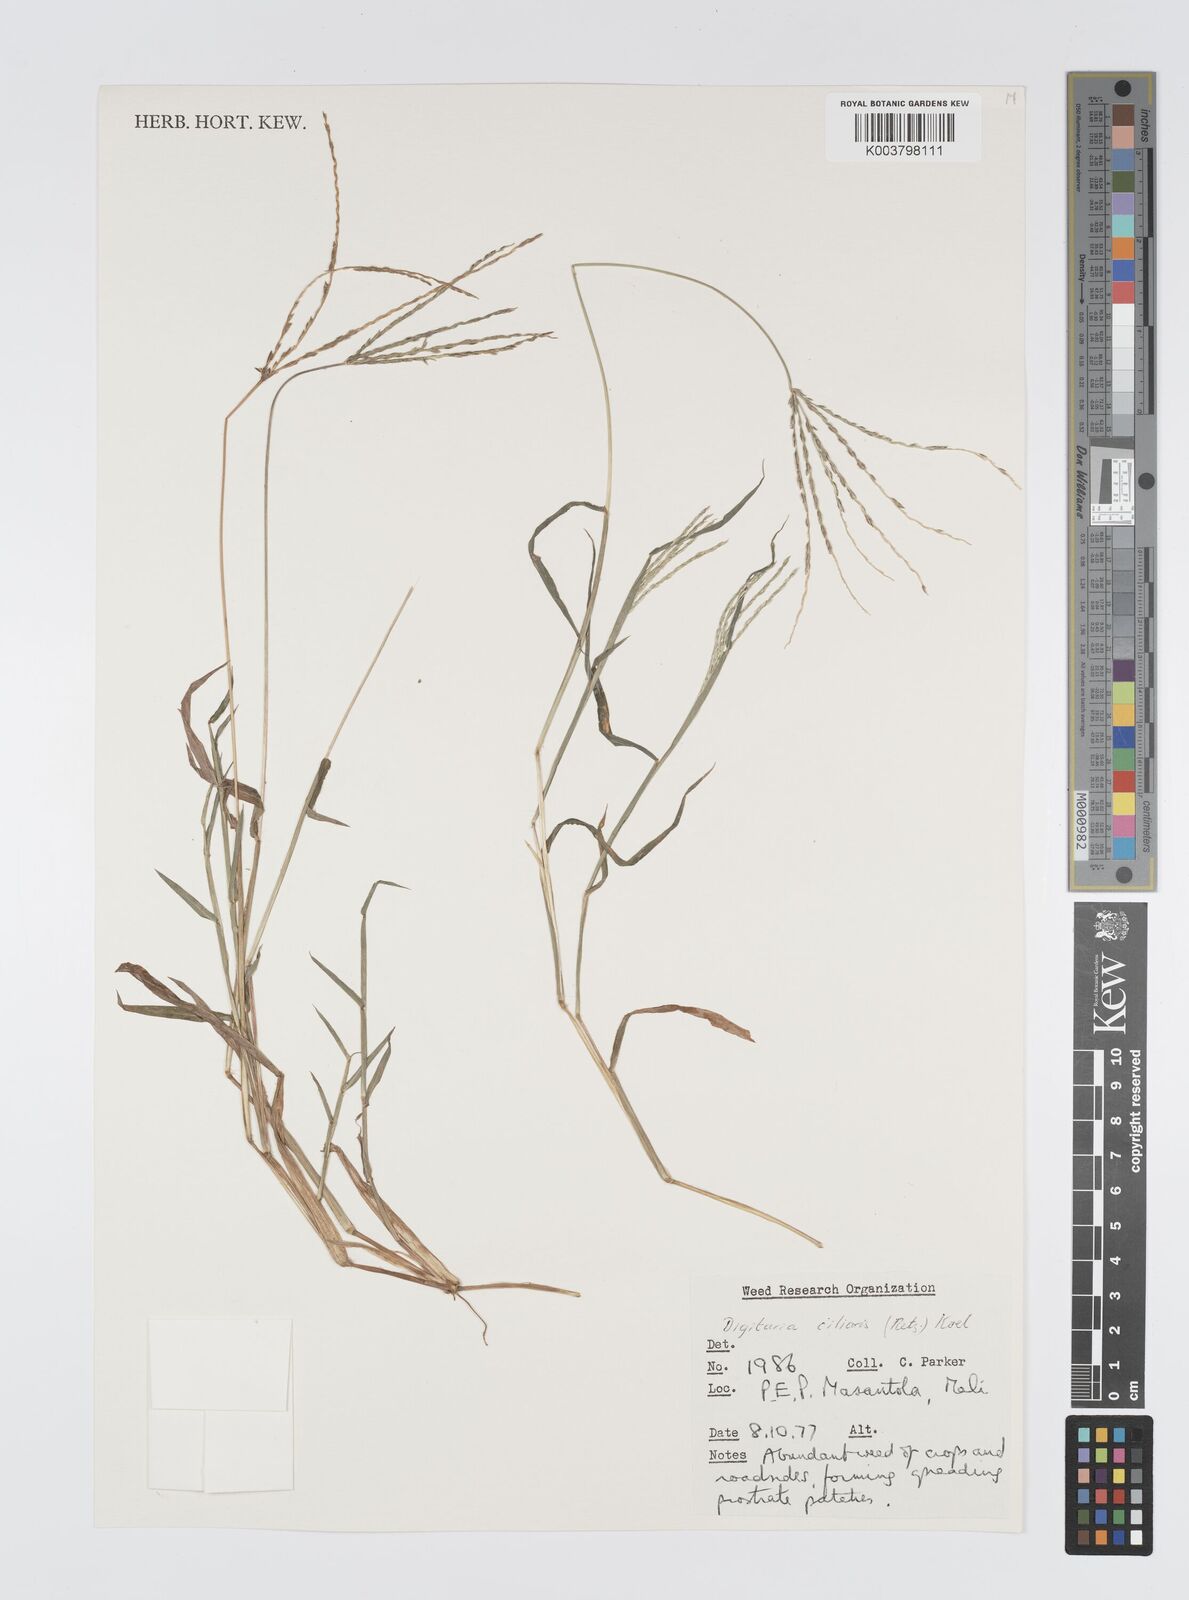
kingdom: Plantae
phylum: Tracheophyta
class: Liliopsida
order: Poales
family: Poaceae
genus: Digitaria
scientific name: Digitaria
